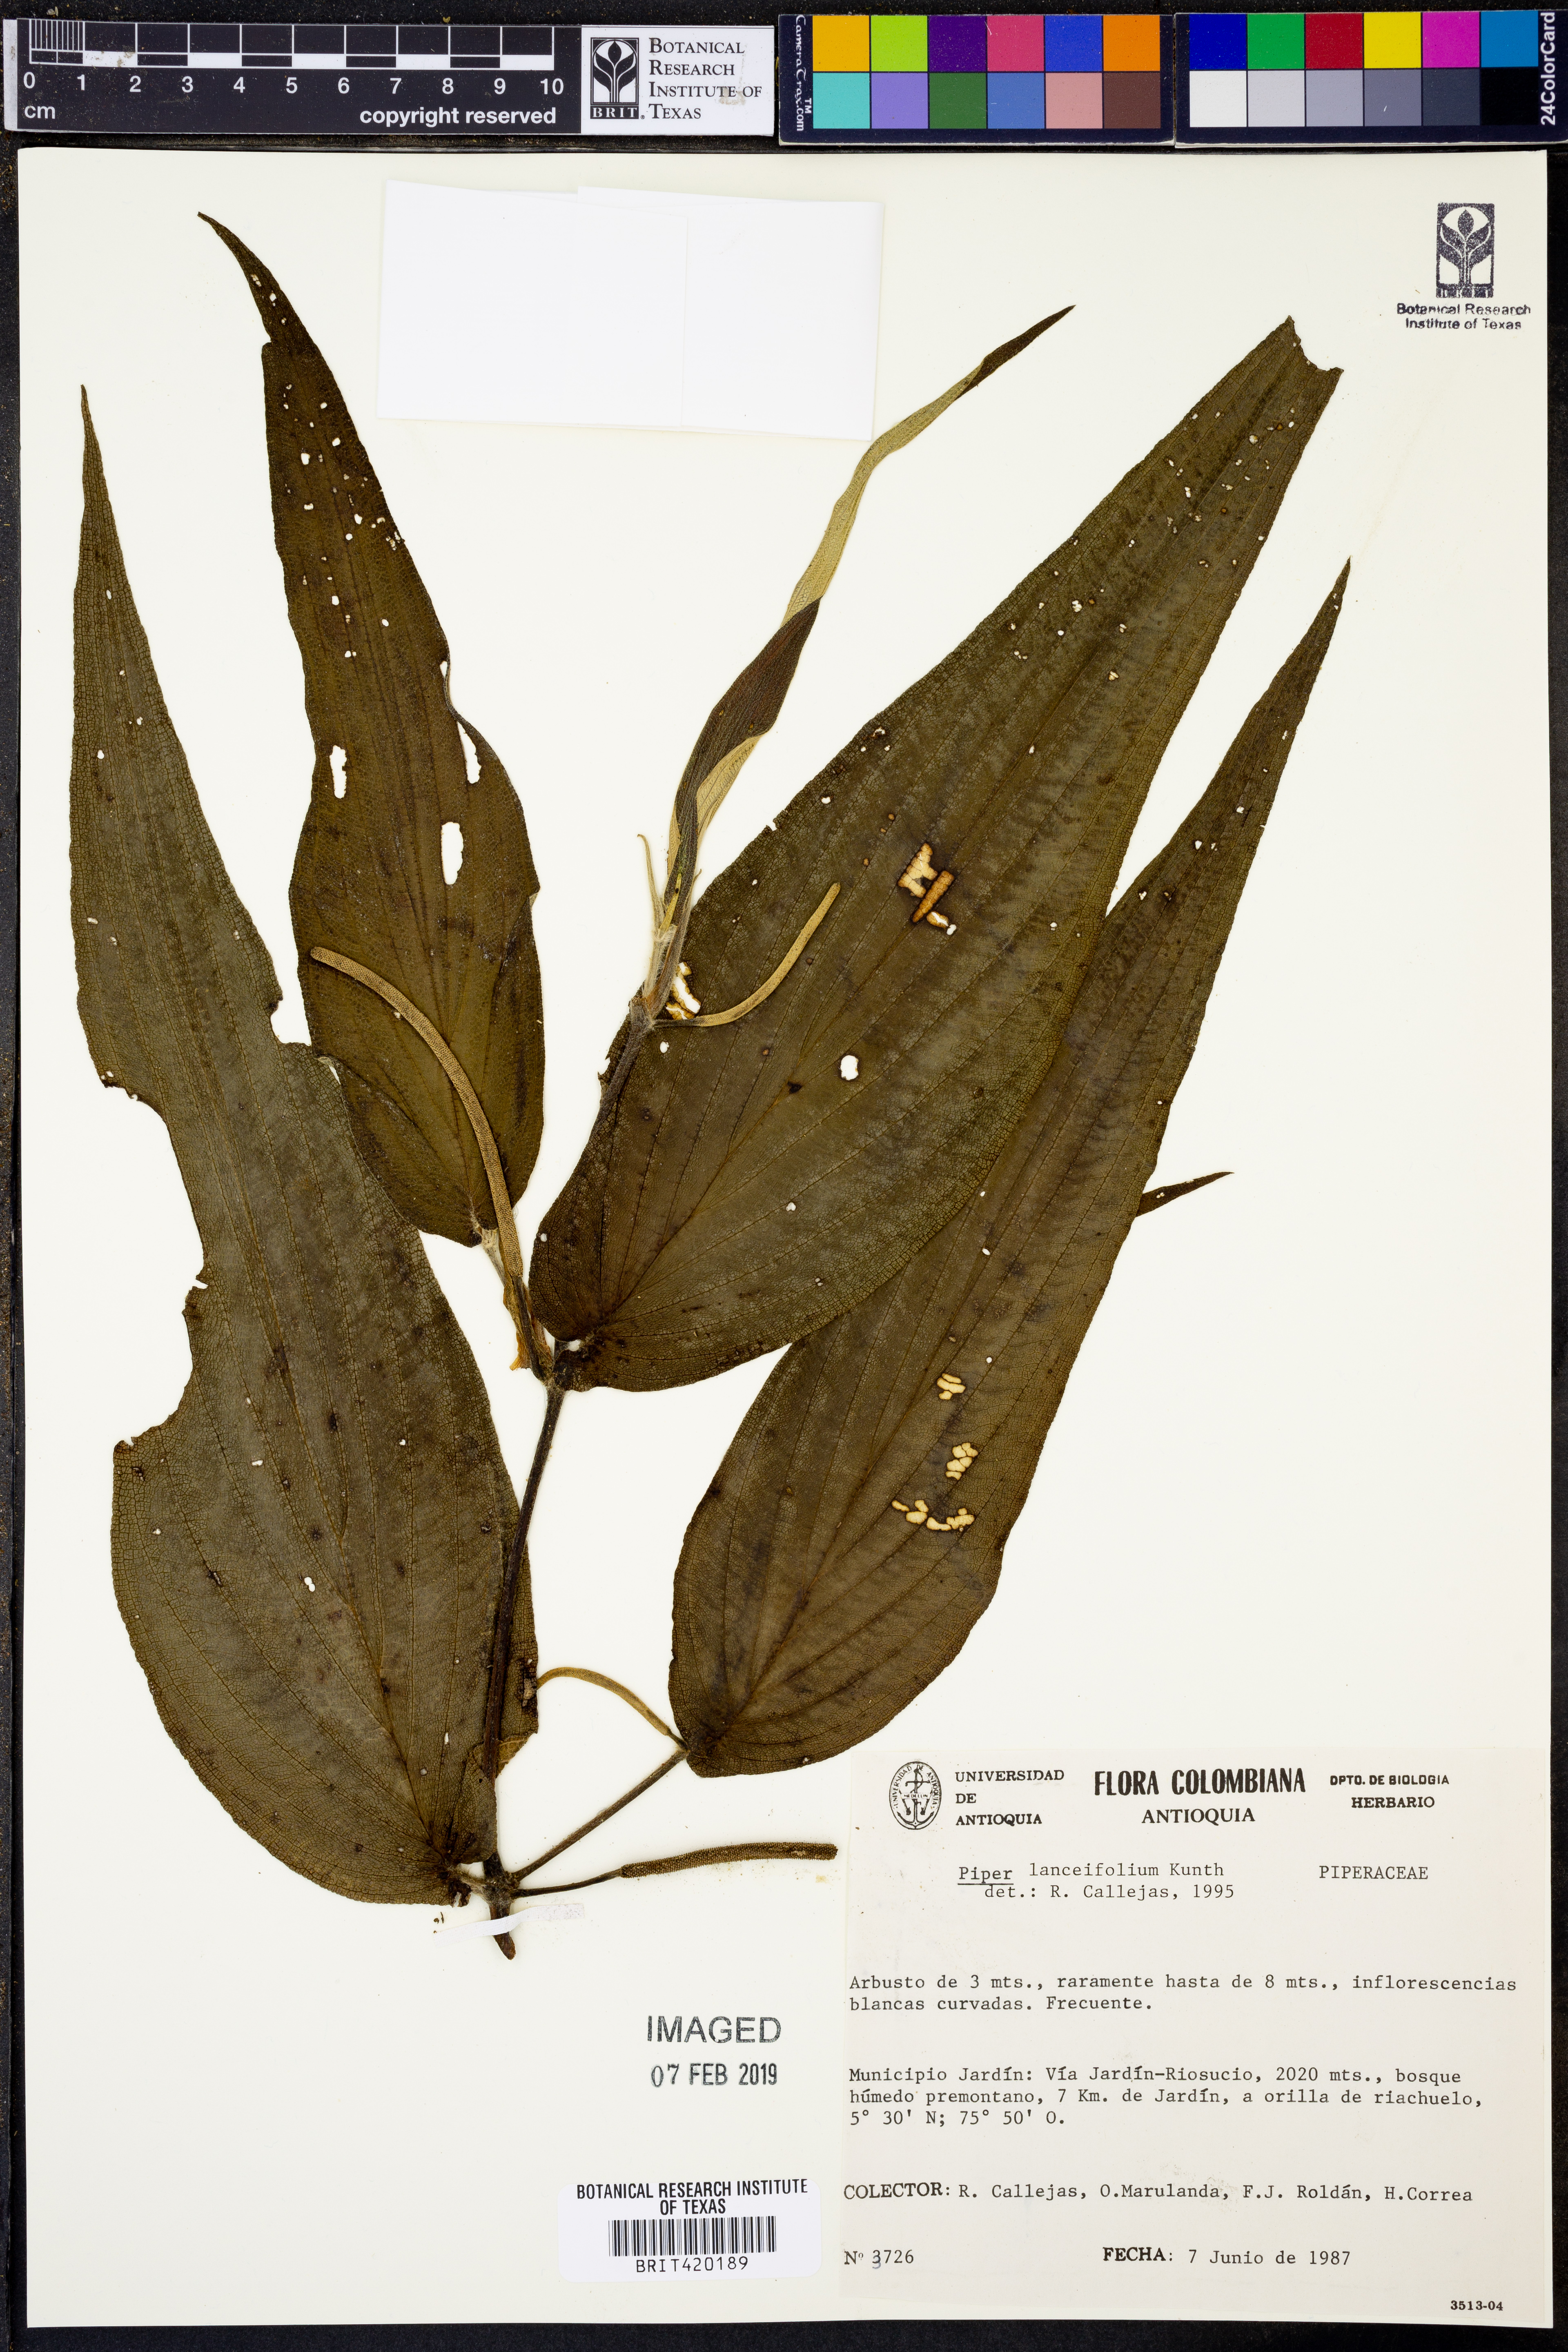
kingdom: Plantae
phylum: Tracheophyta
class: Magnoliopsida
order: Piperales
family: Piperaceae
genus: Piper
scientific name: Piper lanceifolium
